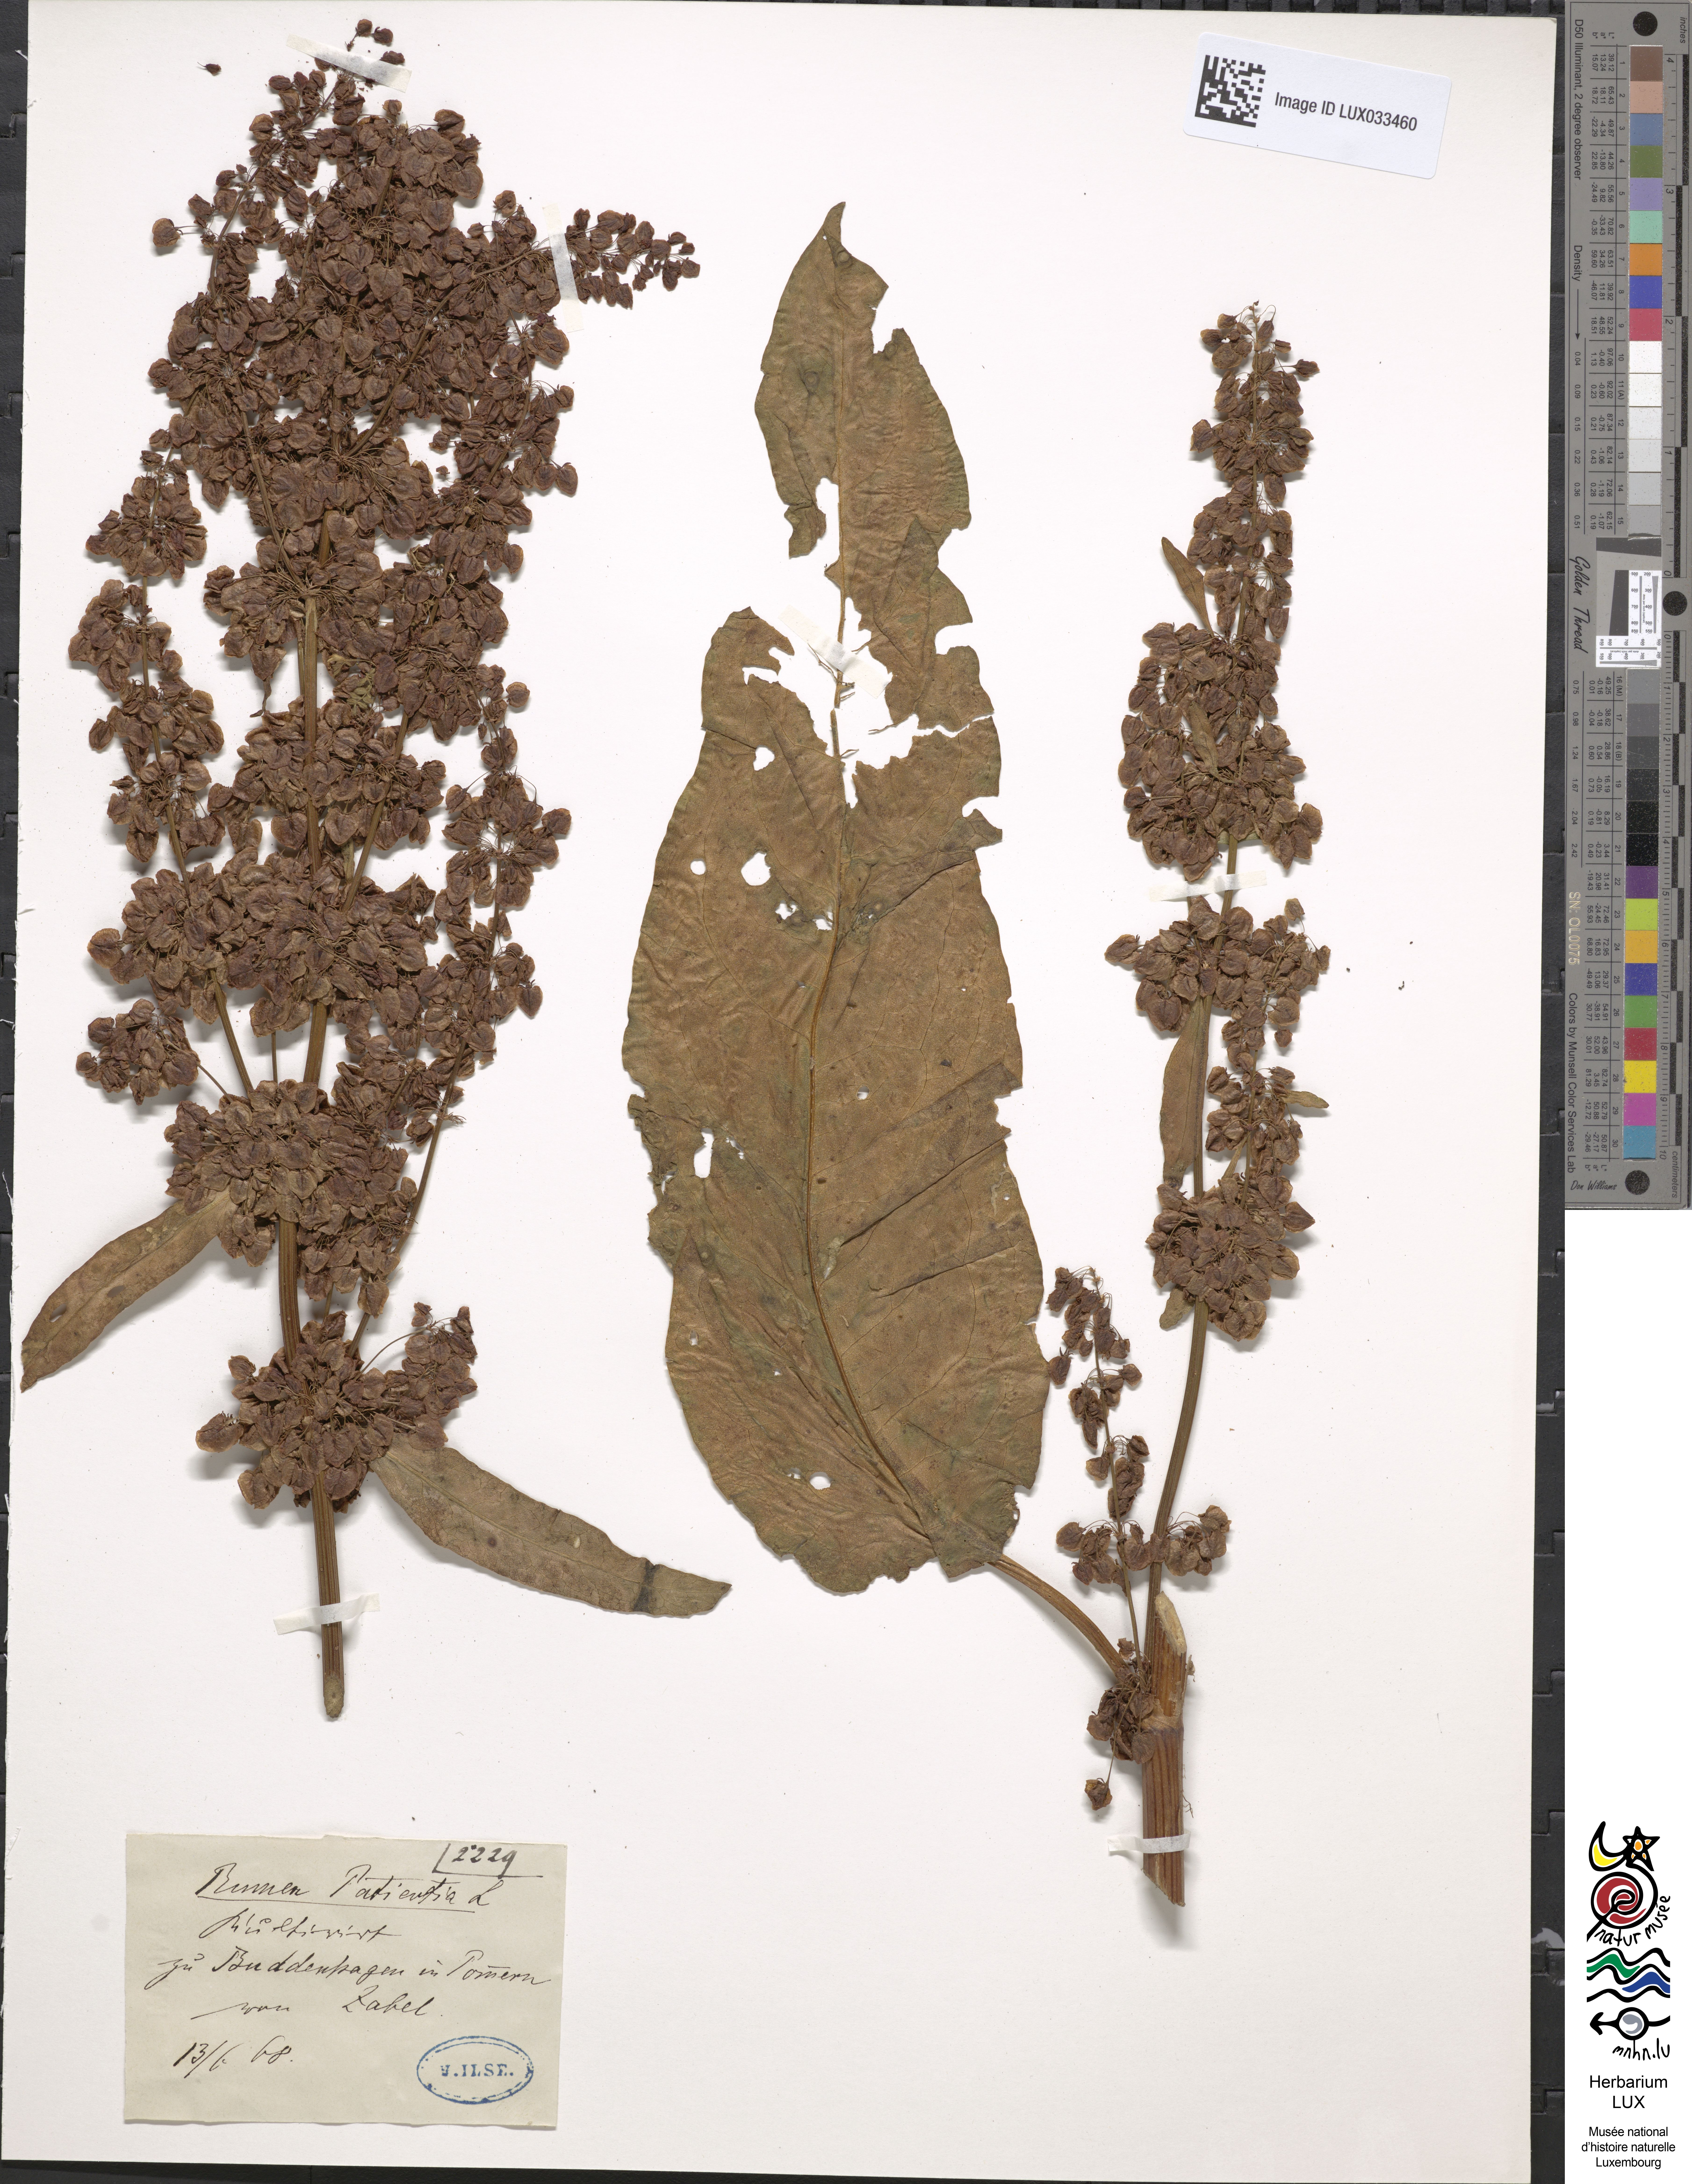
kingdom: Plantae
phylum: Tracheophyta
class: Magnoliopsida
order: Caryophyllales
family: Polygonaceae
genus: Rumex
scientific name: Rumex patientia
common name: Patience dock
